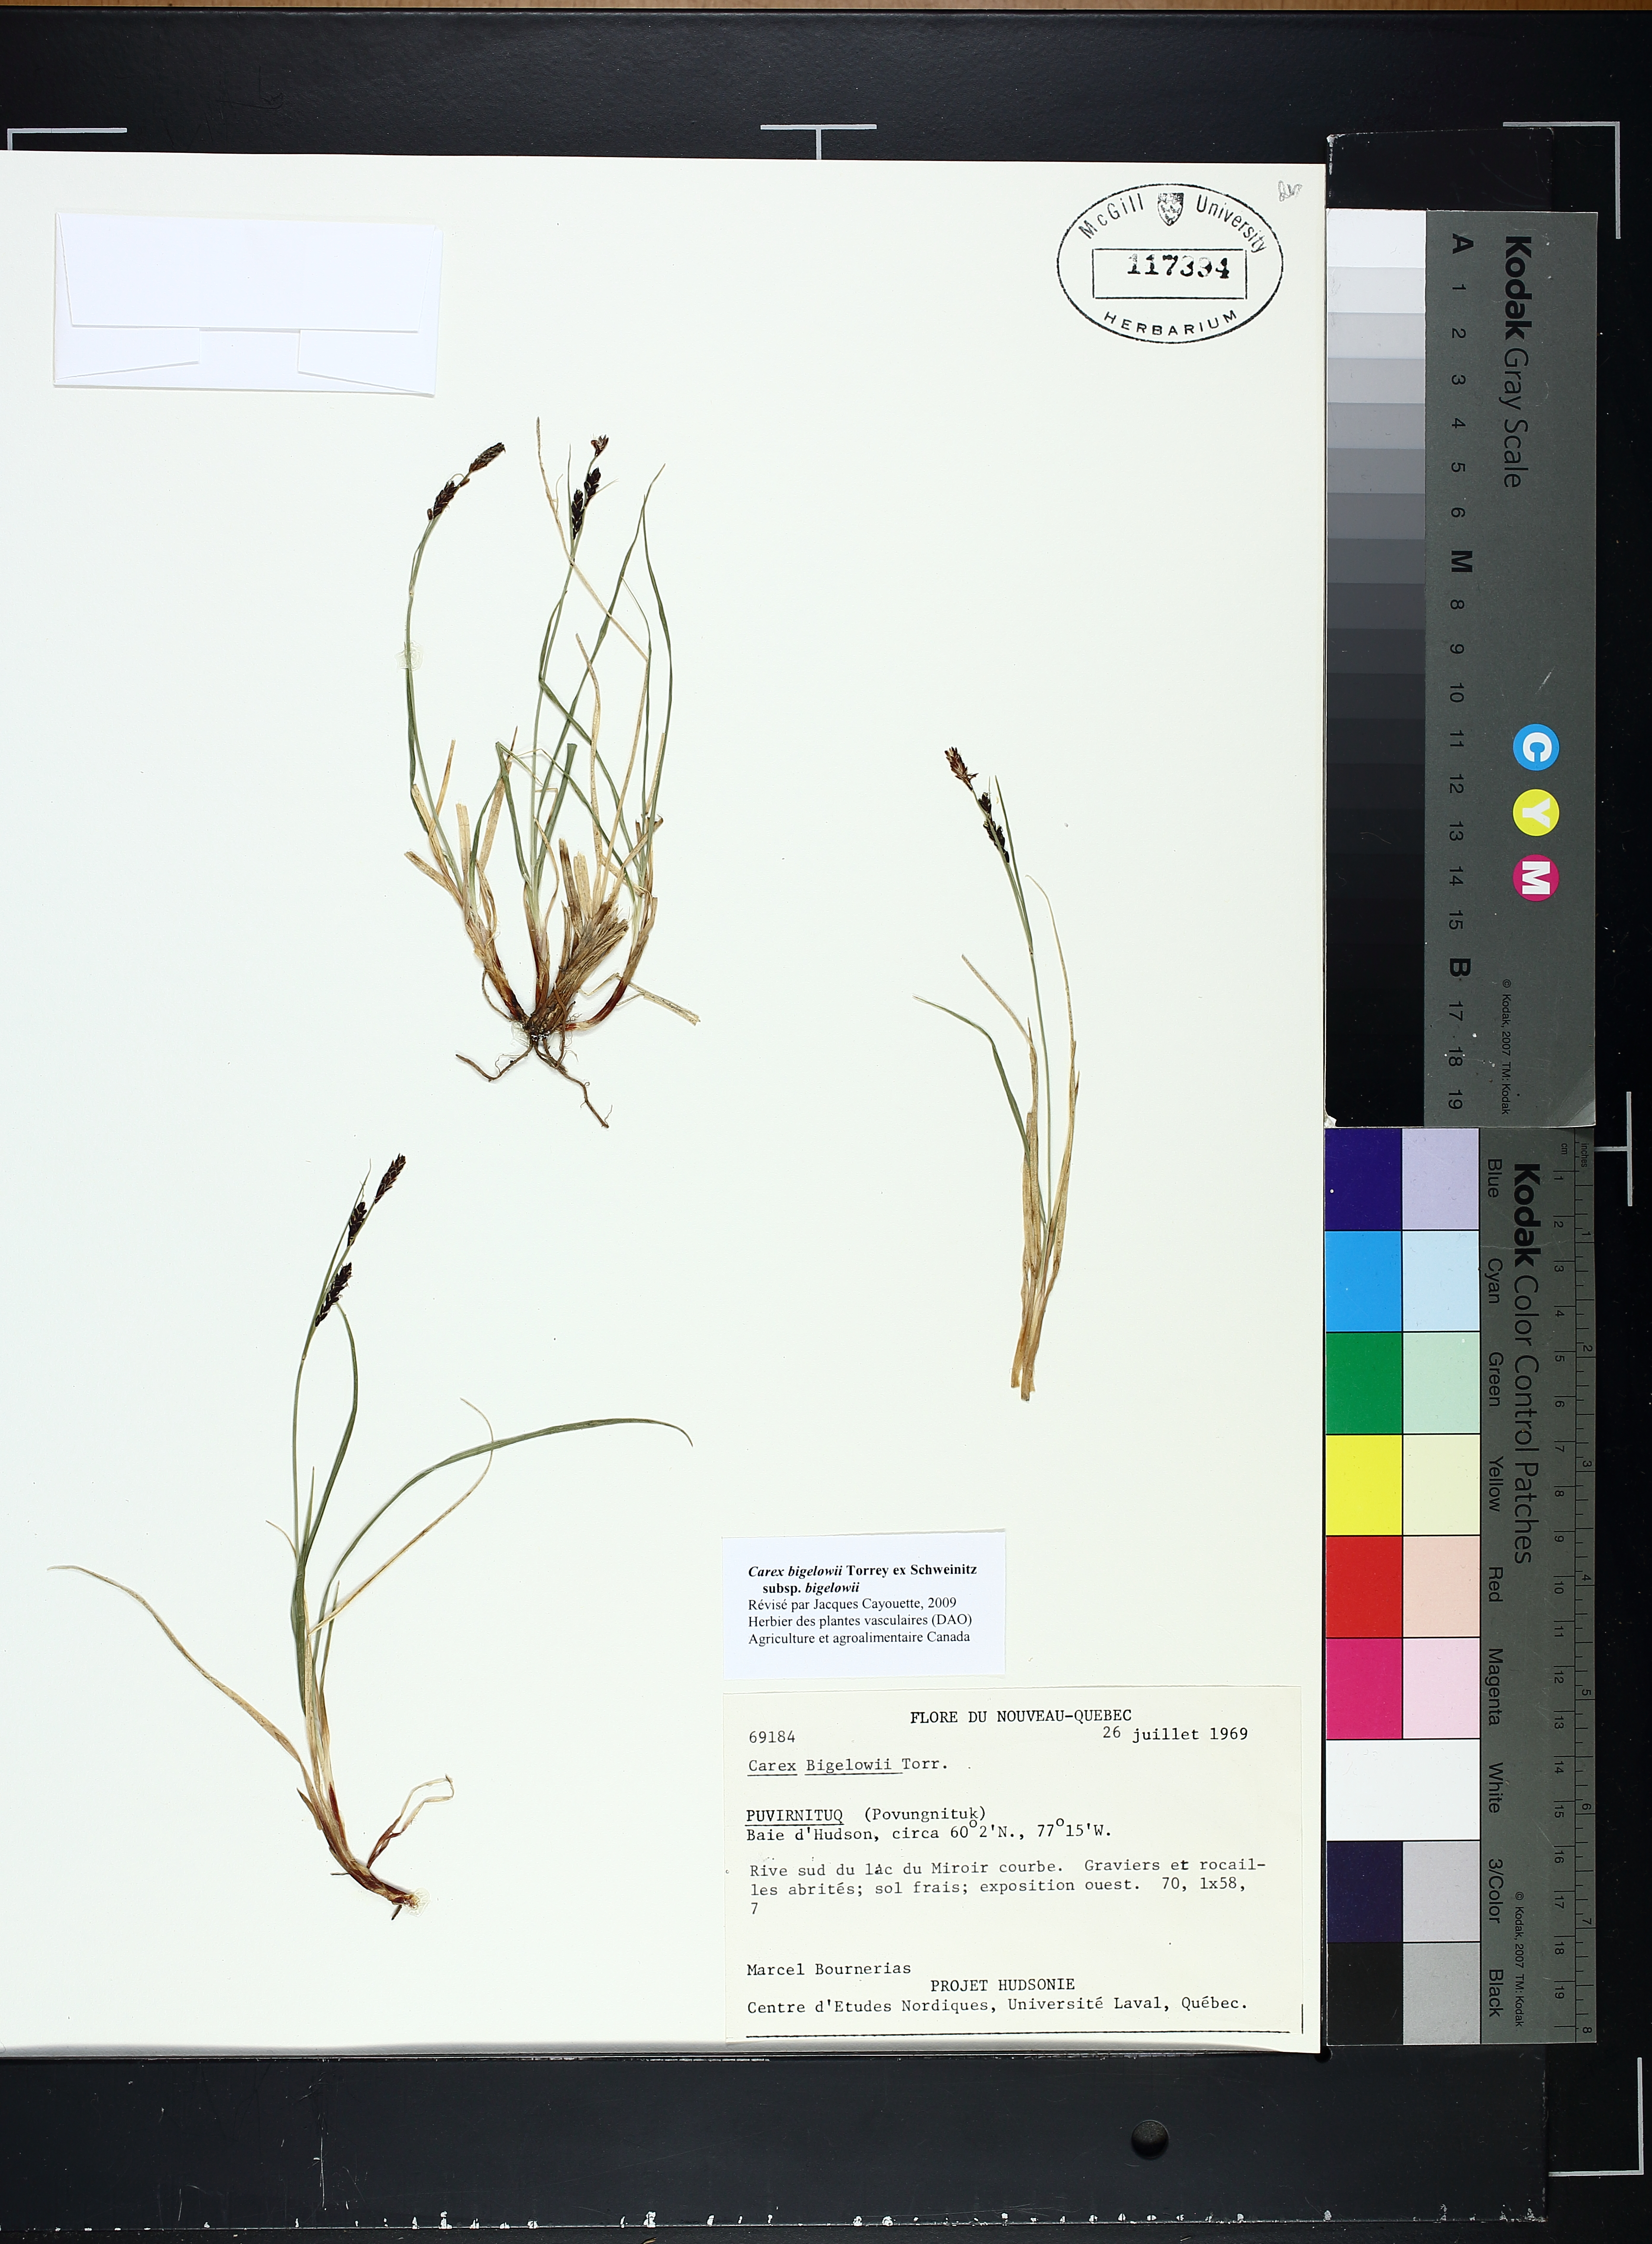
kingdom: Plantae
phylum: Tracheophyta
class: Liliopsida
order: Poales
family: Cyperaceae
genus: Carex
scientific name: Carex bigelowii
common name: Stiff sedge
